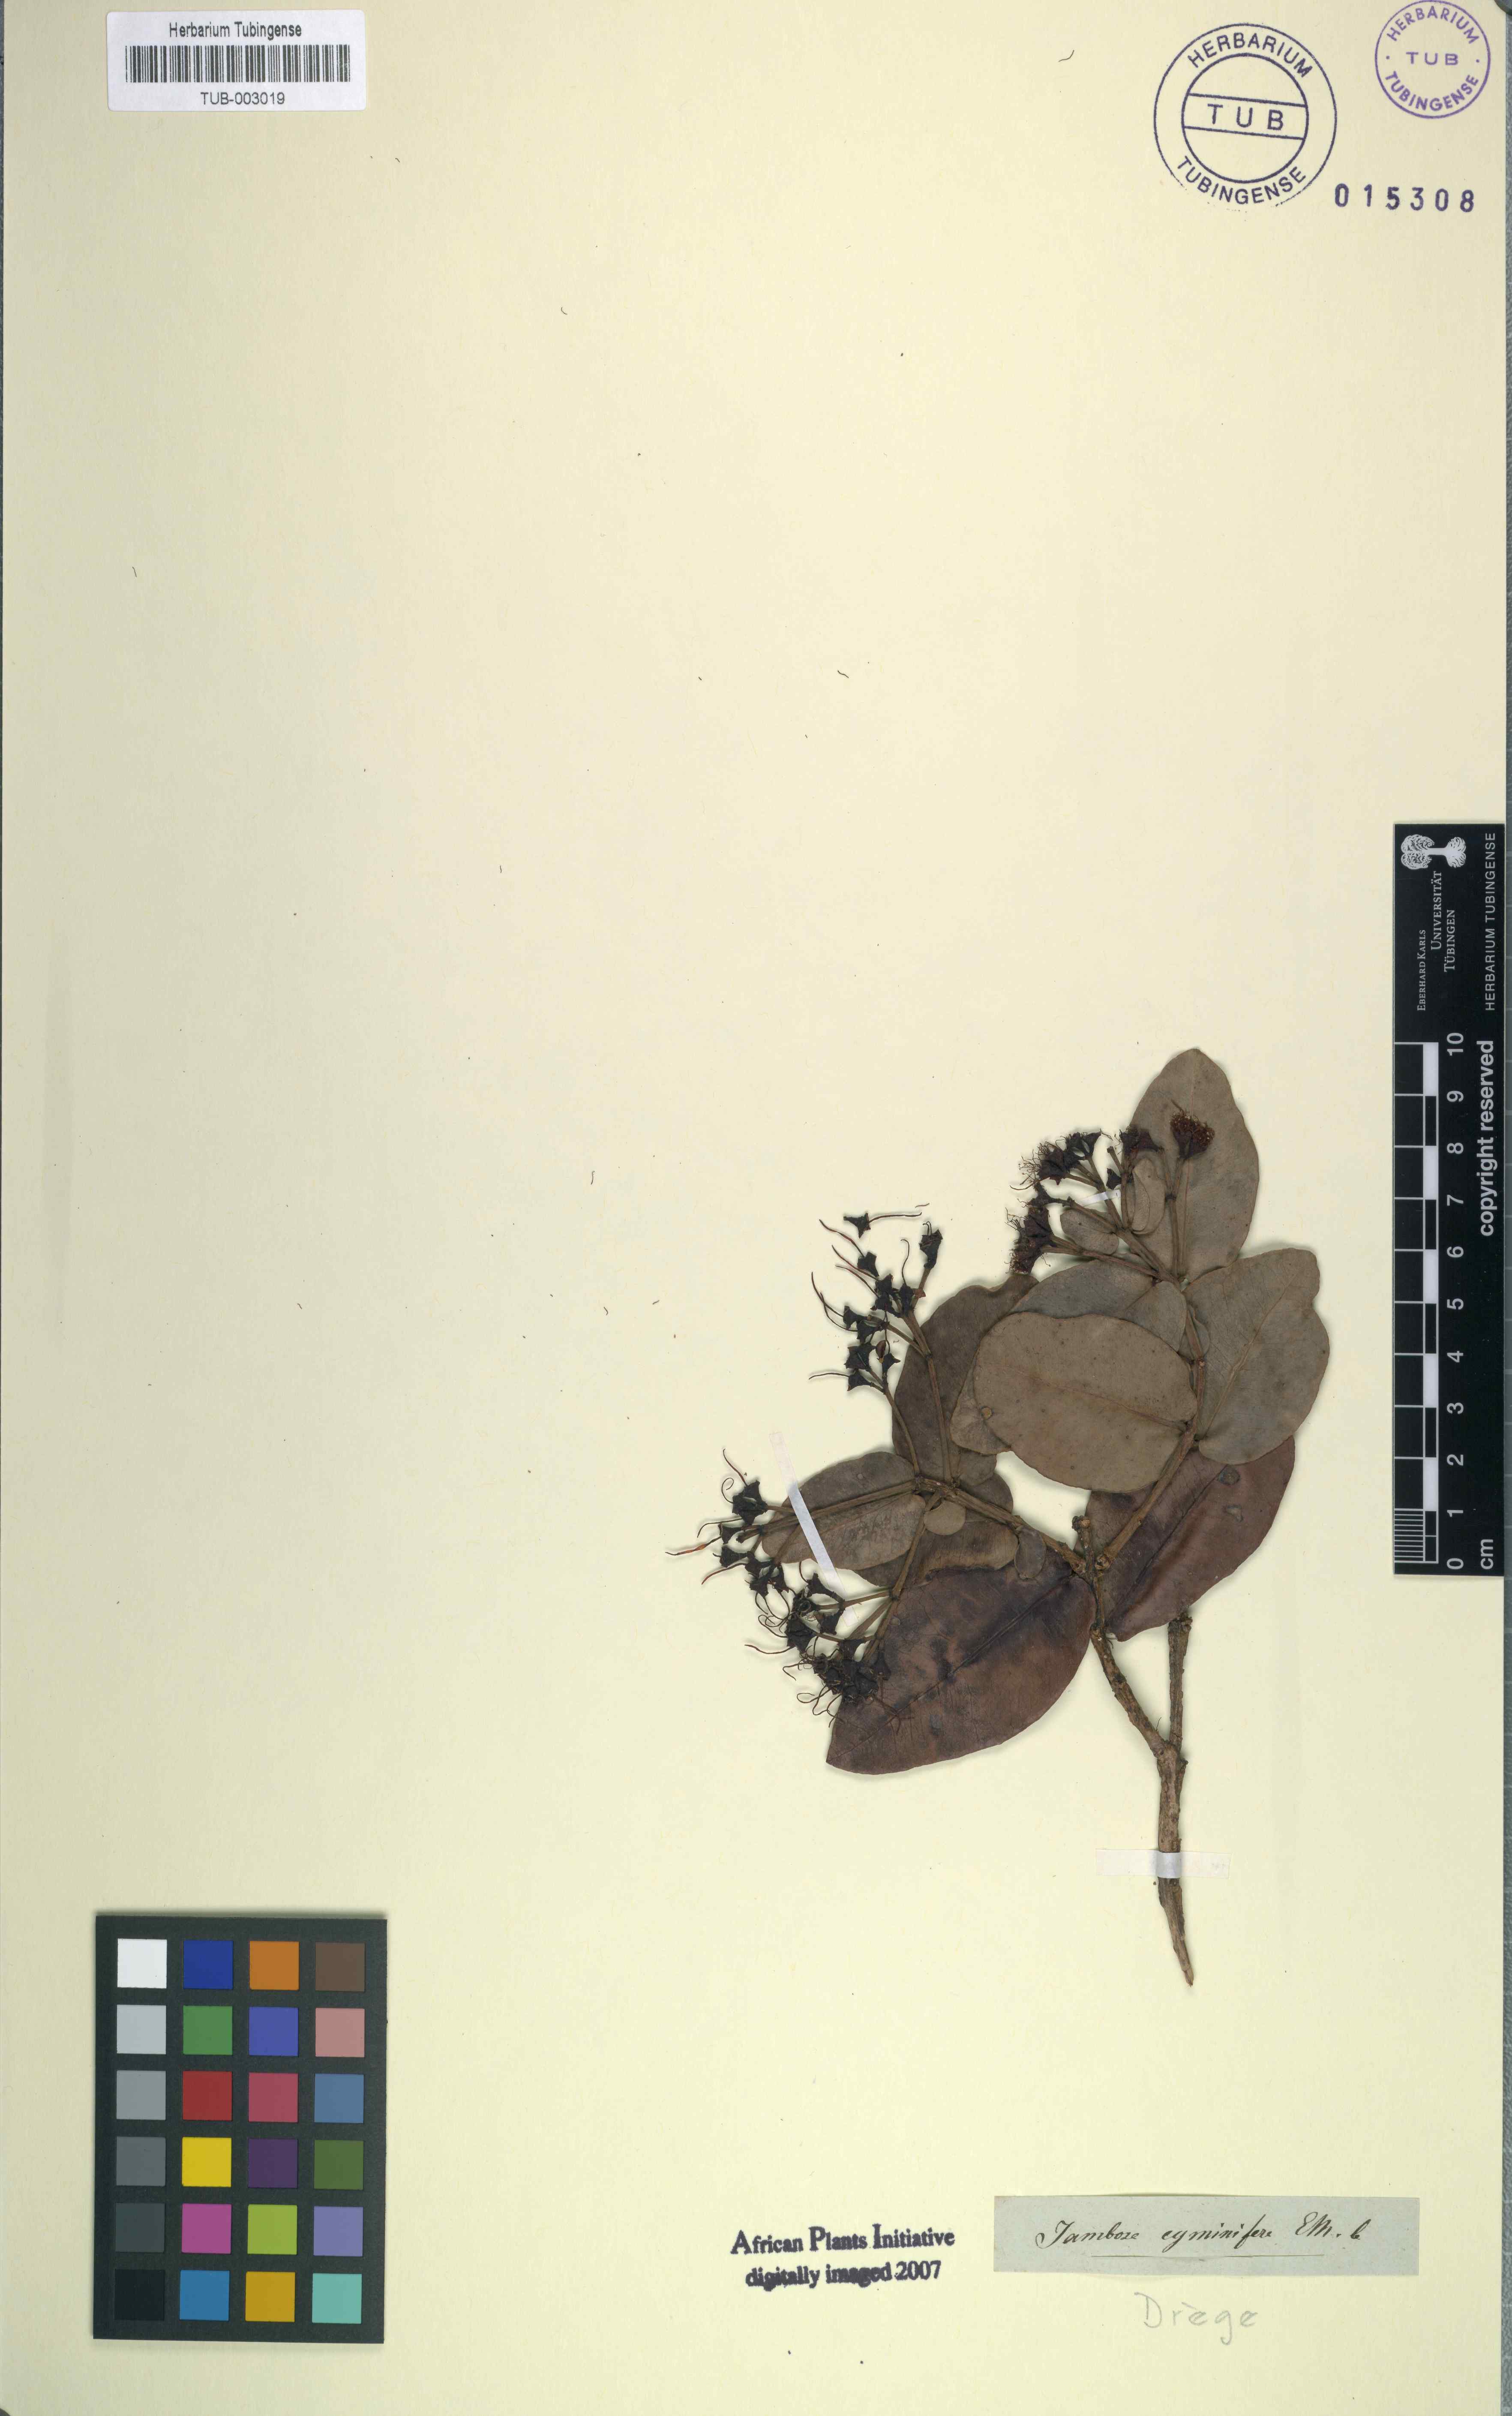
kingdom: Plantae
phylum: Tracheophyta
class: Magnoliopsida
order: Myrtales
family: Myrtaceae
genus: Syzygium
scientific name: Syzygium cordatum
